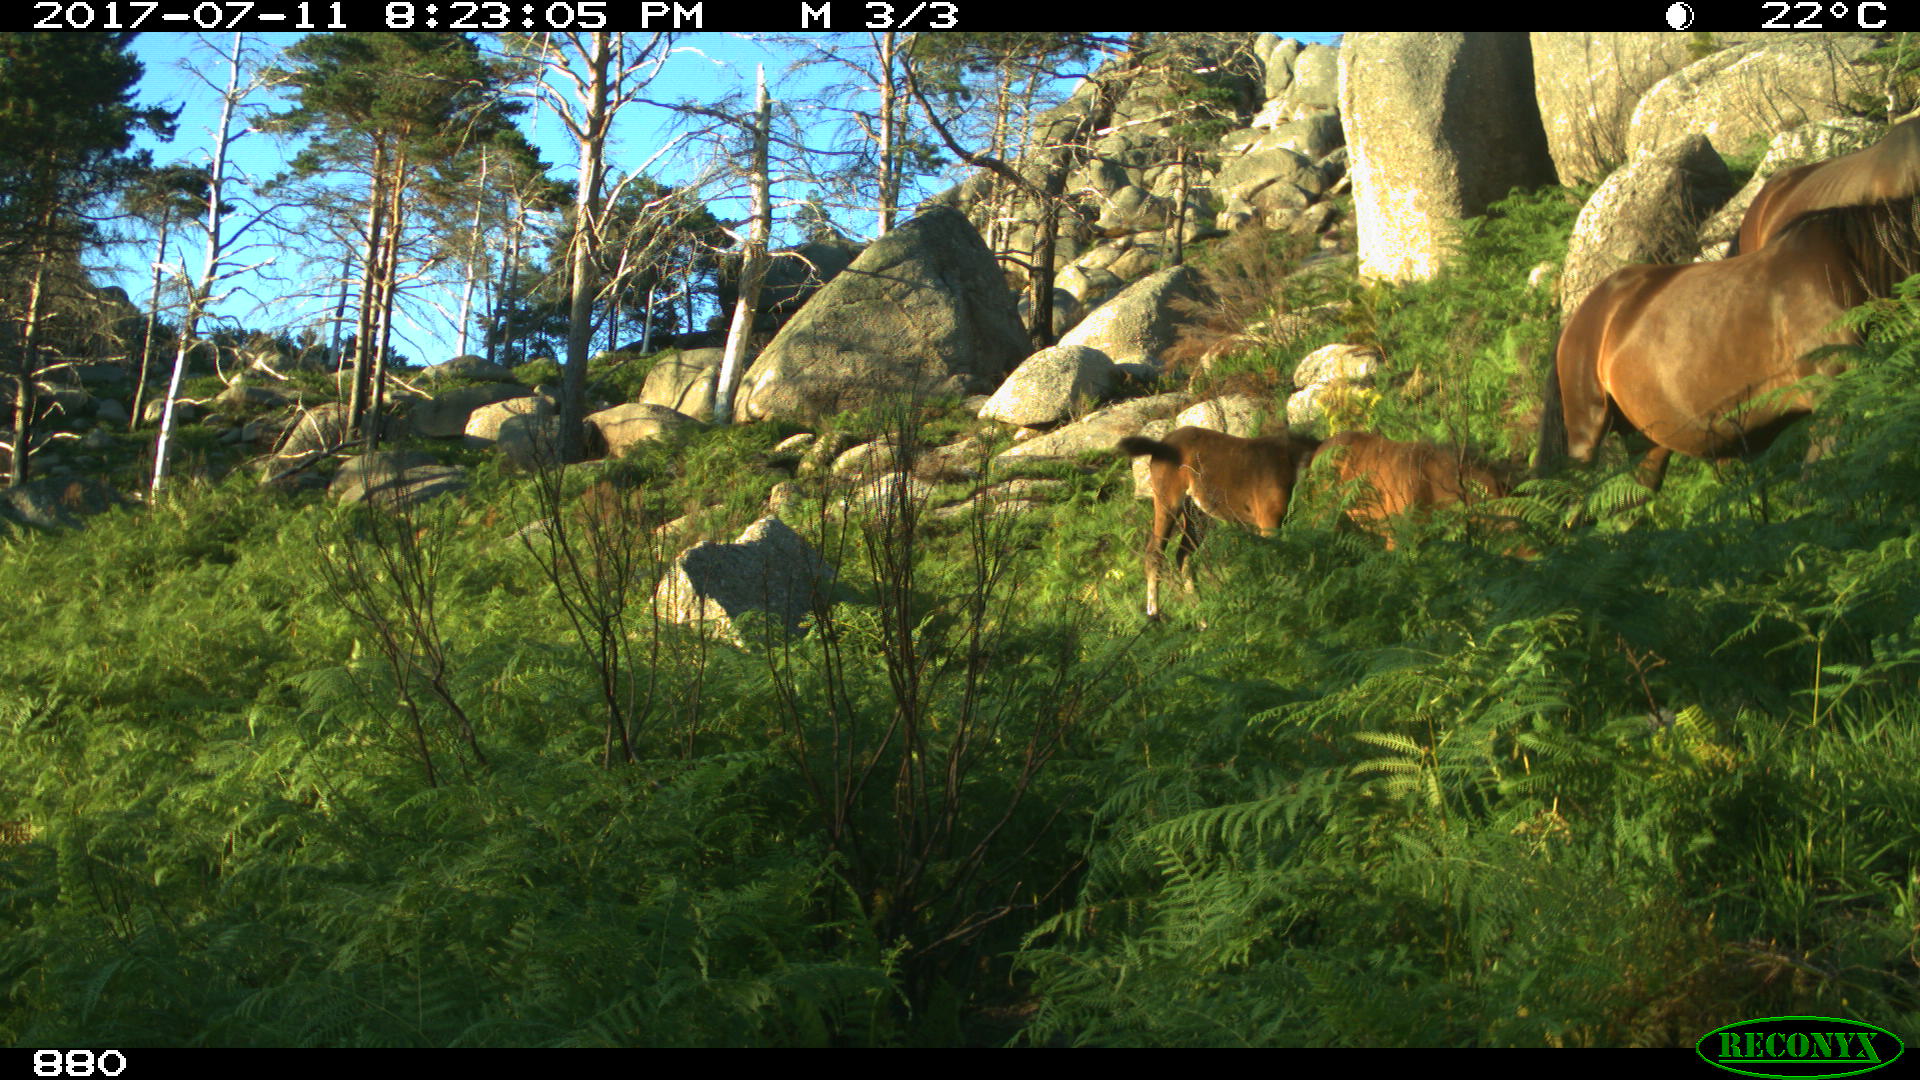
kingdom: Animalia
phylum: Chordata
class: Mammalia
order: Perissodactyla
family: Equidae
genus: Equus
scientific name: Equus caballus
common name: Horse
